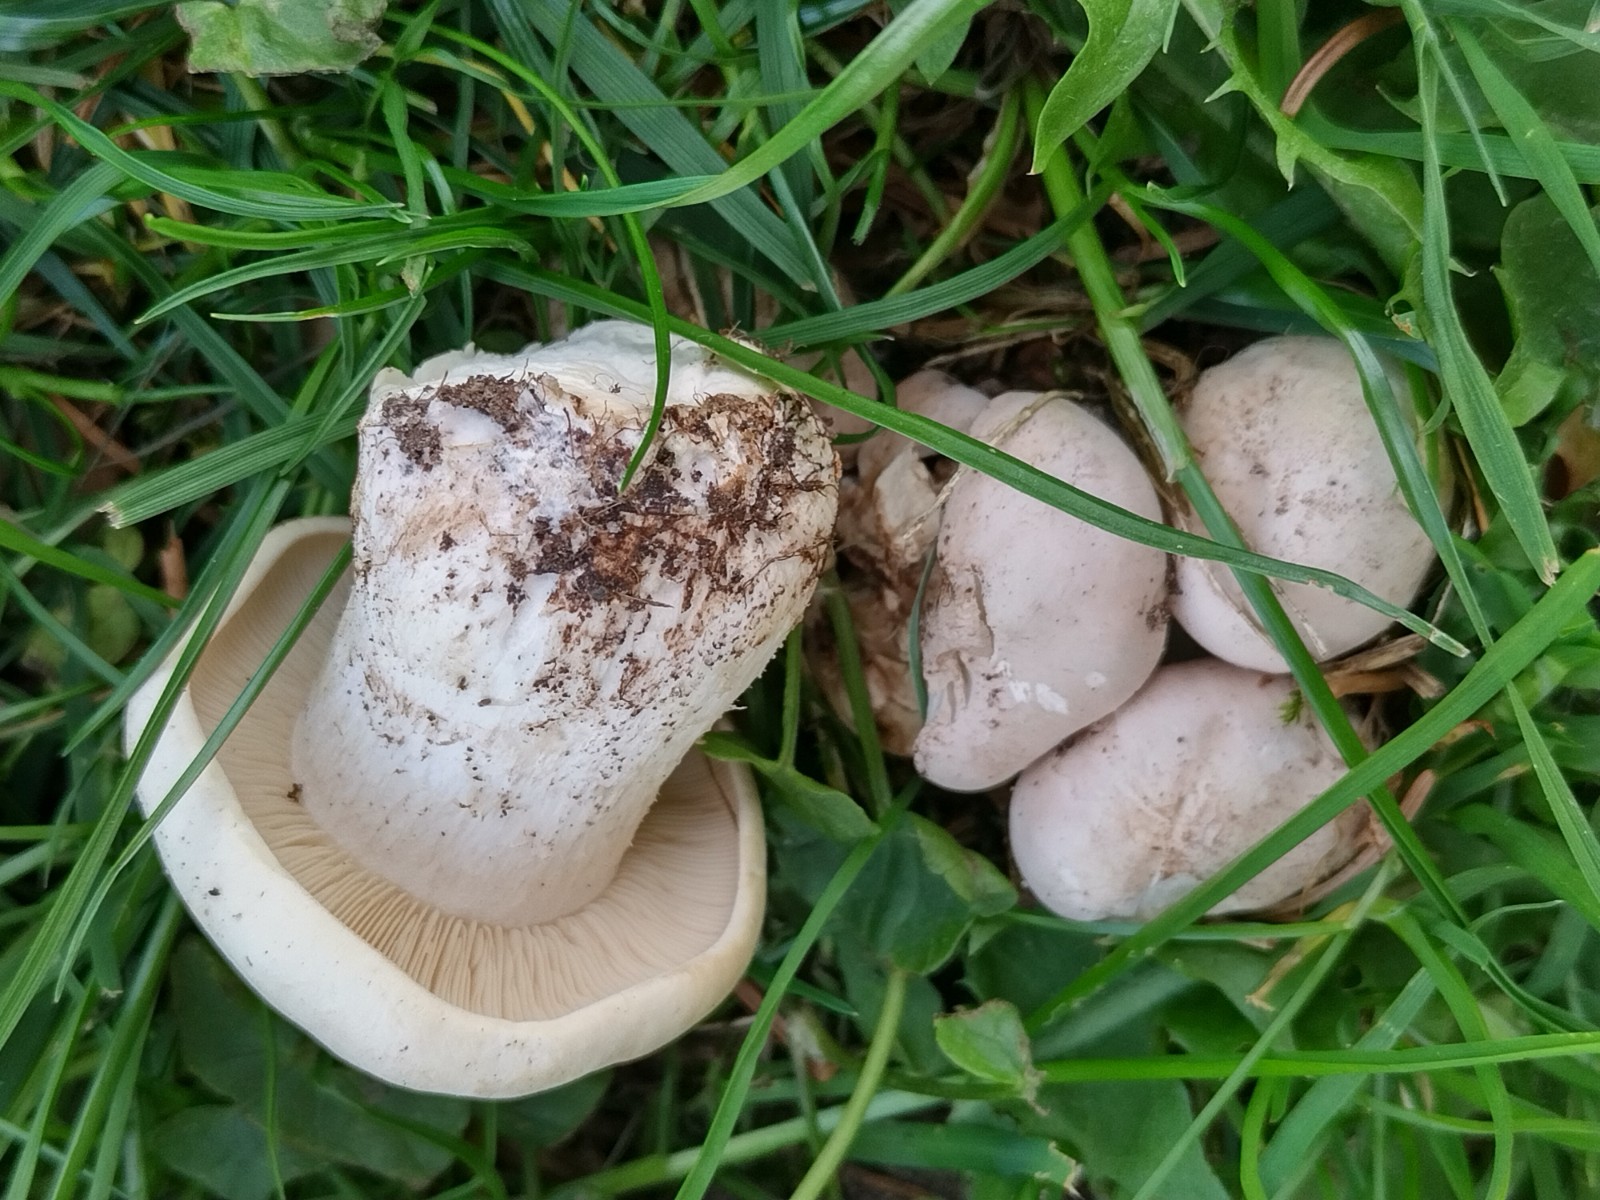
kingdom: Fungi
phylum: Basidiomycota
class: Agaricomycetes
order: Agaricales
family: Lyophyllaceae
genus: Calocybe
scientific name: Calocybe gambosa
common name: vårmusseron
